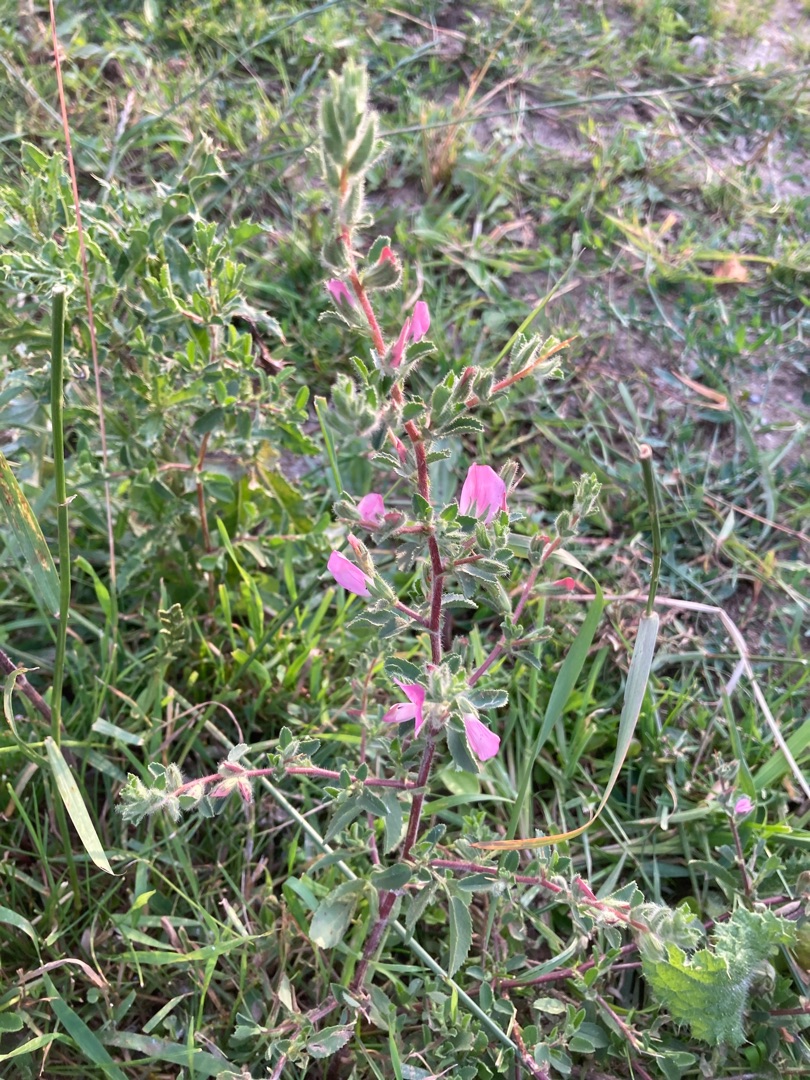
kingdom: Plantae
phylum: Tracheophyta
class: Magnoliopsida
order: Fabales
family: Fabaceae
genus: Ononis
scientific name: Ononis spinosa
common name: Mark-krageklo
